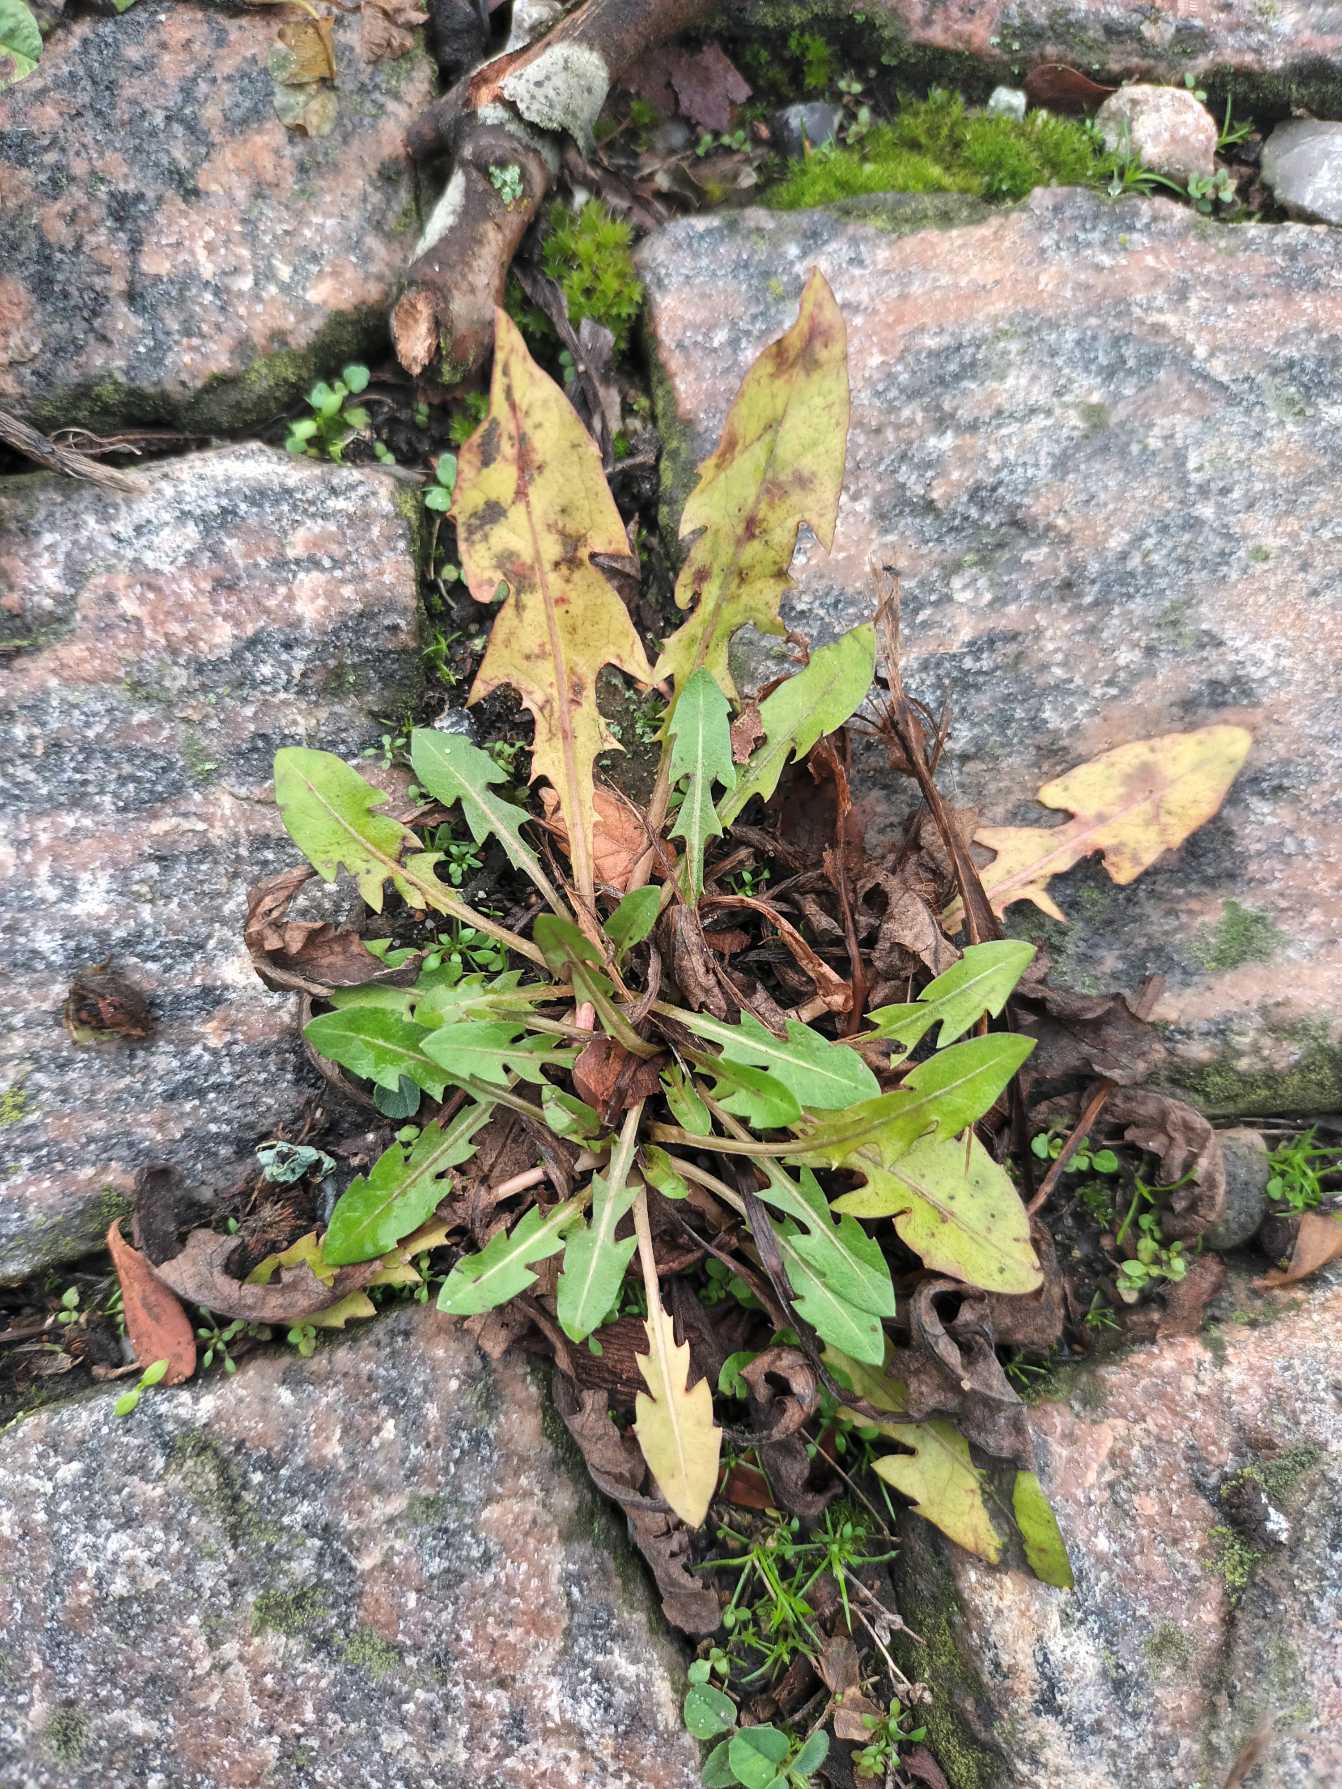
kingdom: Plantae
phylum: Tracheophyta
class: Magnoliopsida
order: Asterales
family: Asteraceae
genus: Taraxacum
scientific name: Taraxacum
